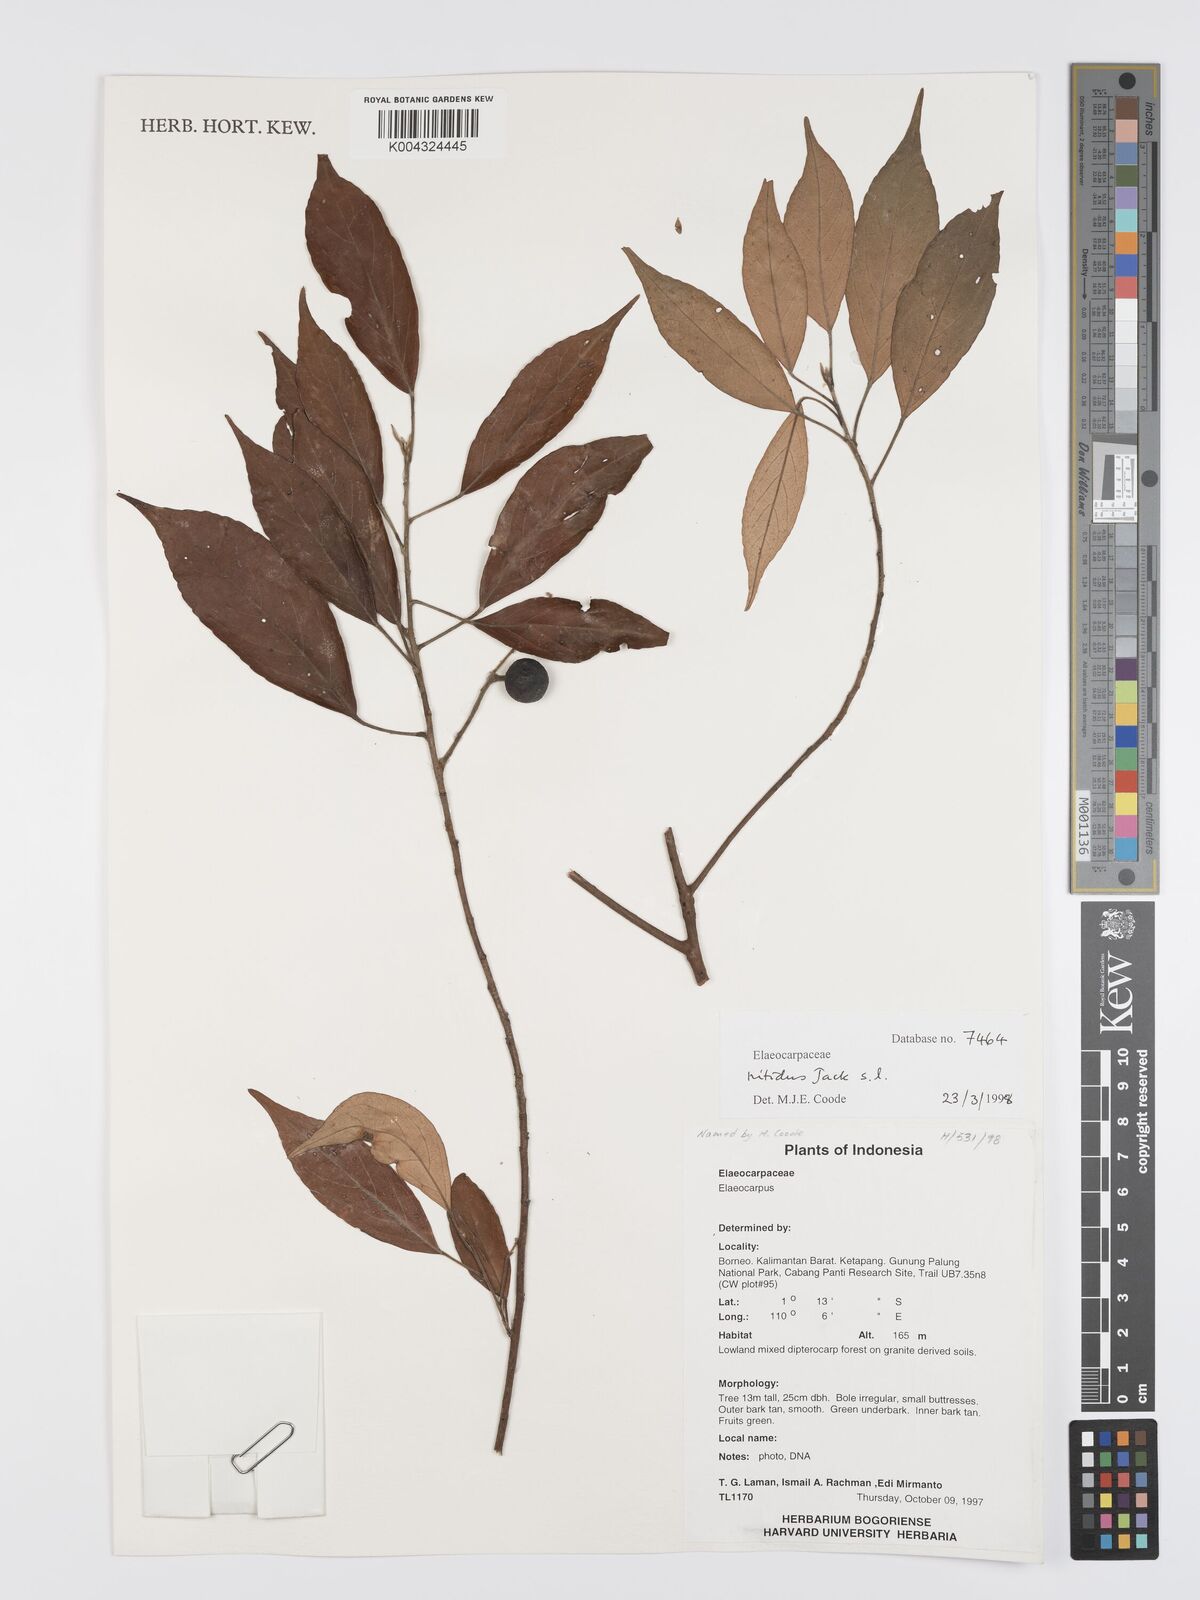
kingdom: Plantae
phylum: Tracheophyta
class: Magnoliopsida
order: Oxalidales
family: Elaeocarpaceae
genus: Elaeocarpus
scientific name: Elaeocarpus nitidus
